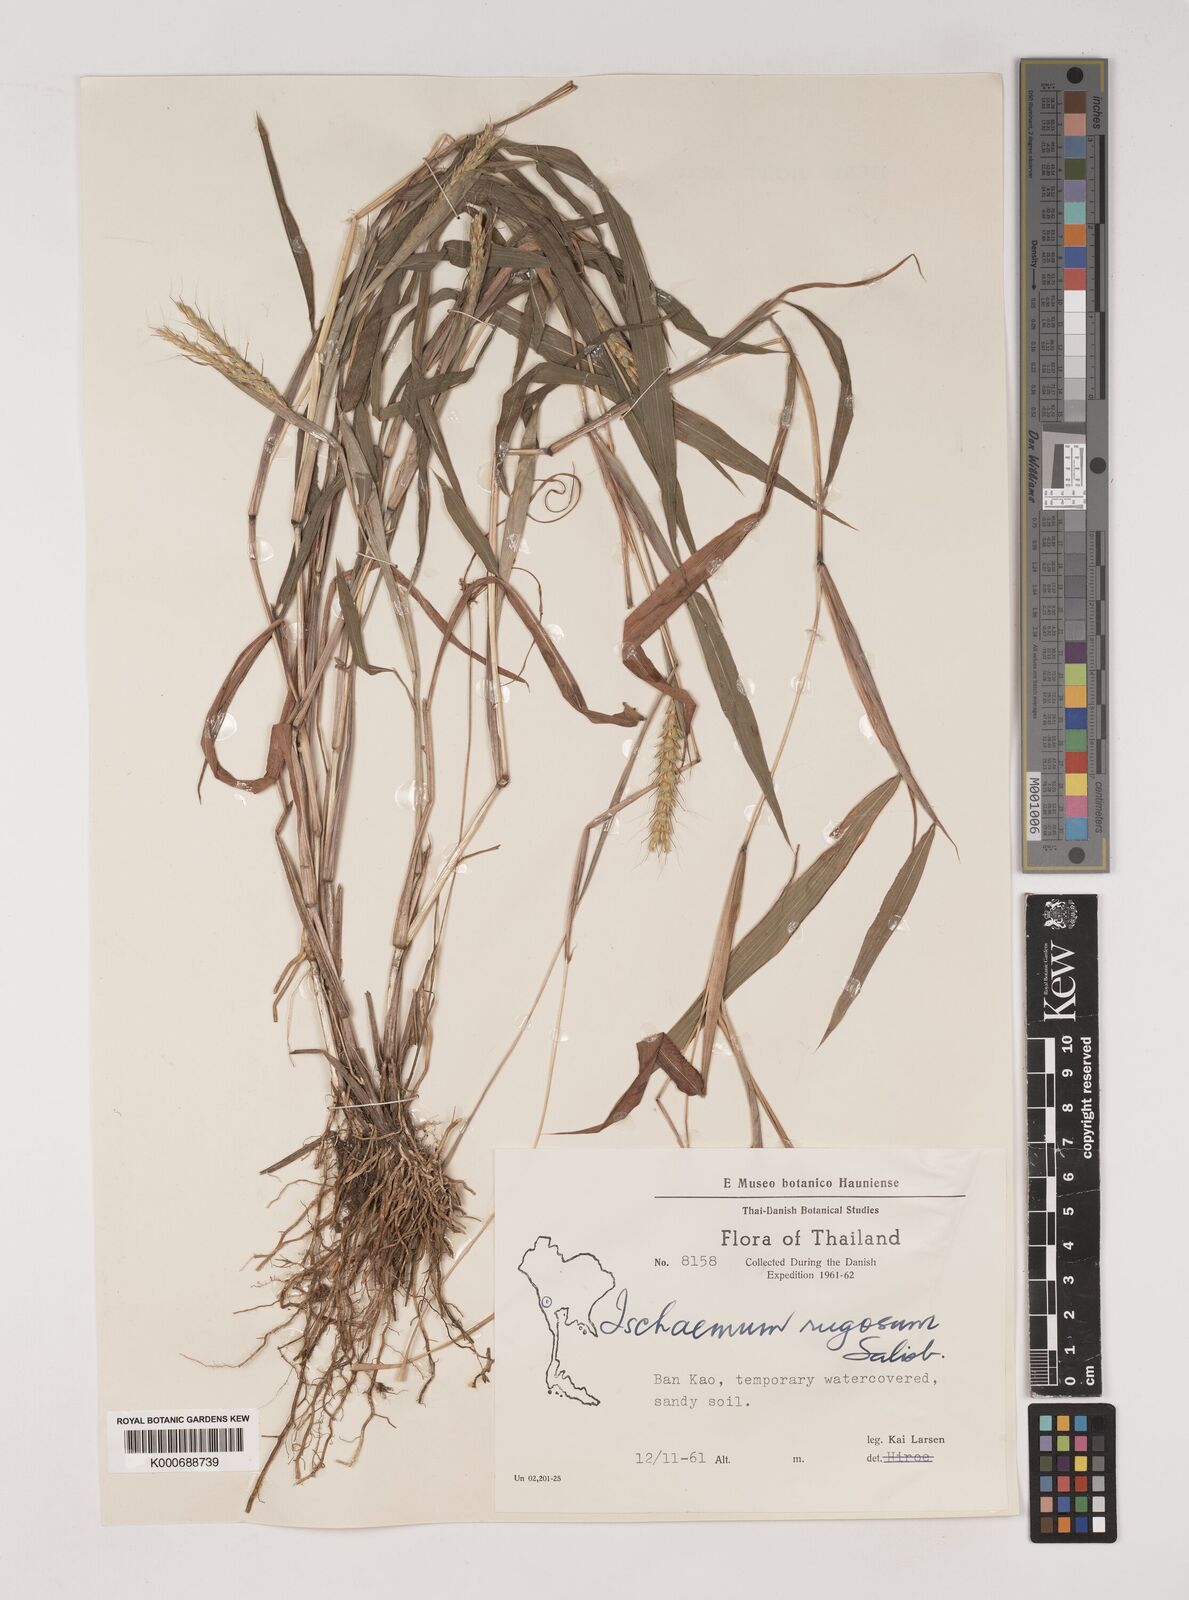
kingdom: Plantae
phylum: Tracheophyta
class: Liliopsida
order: Poales
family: Poaceae
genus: Ischaemum
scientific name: Ischaemum rugosum
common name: Saramatta grass
